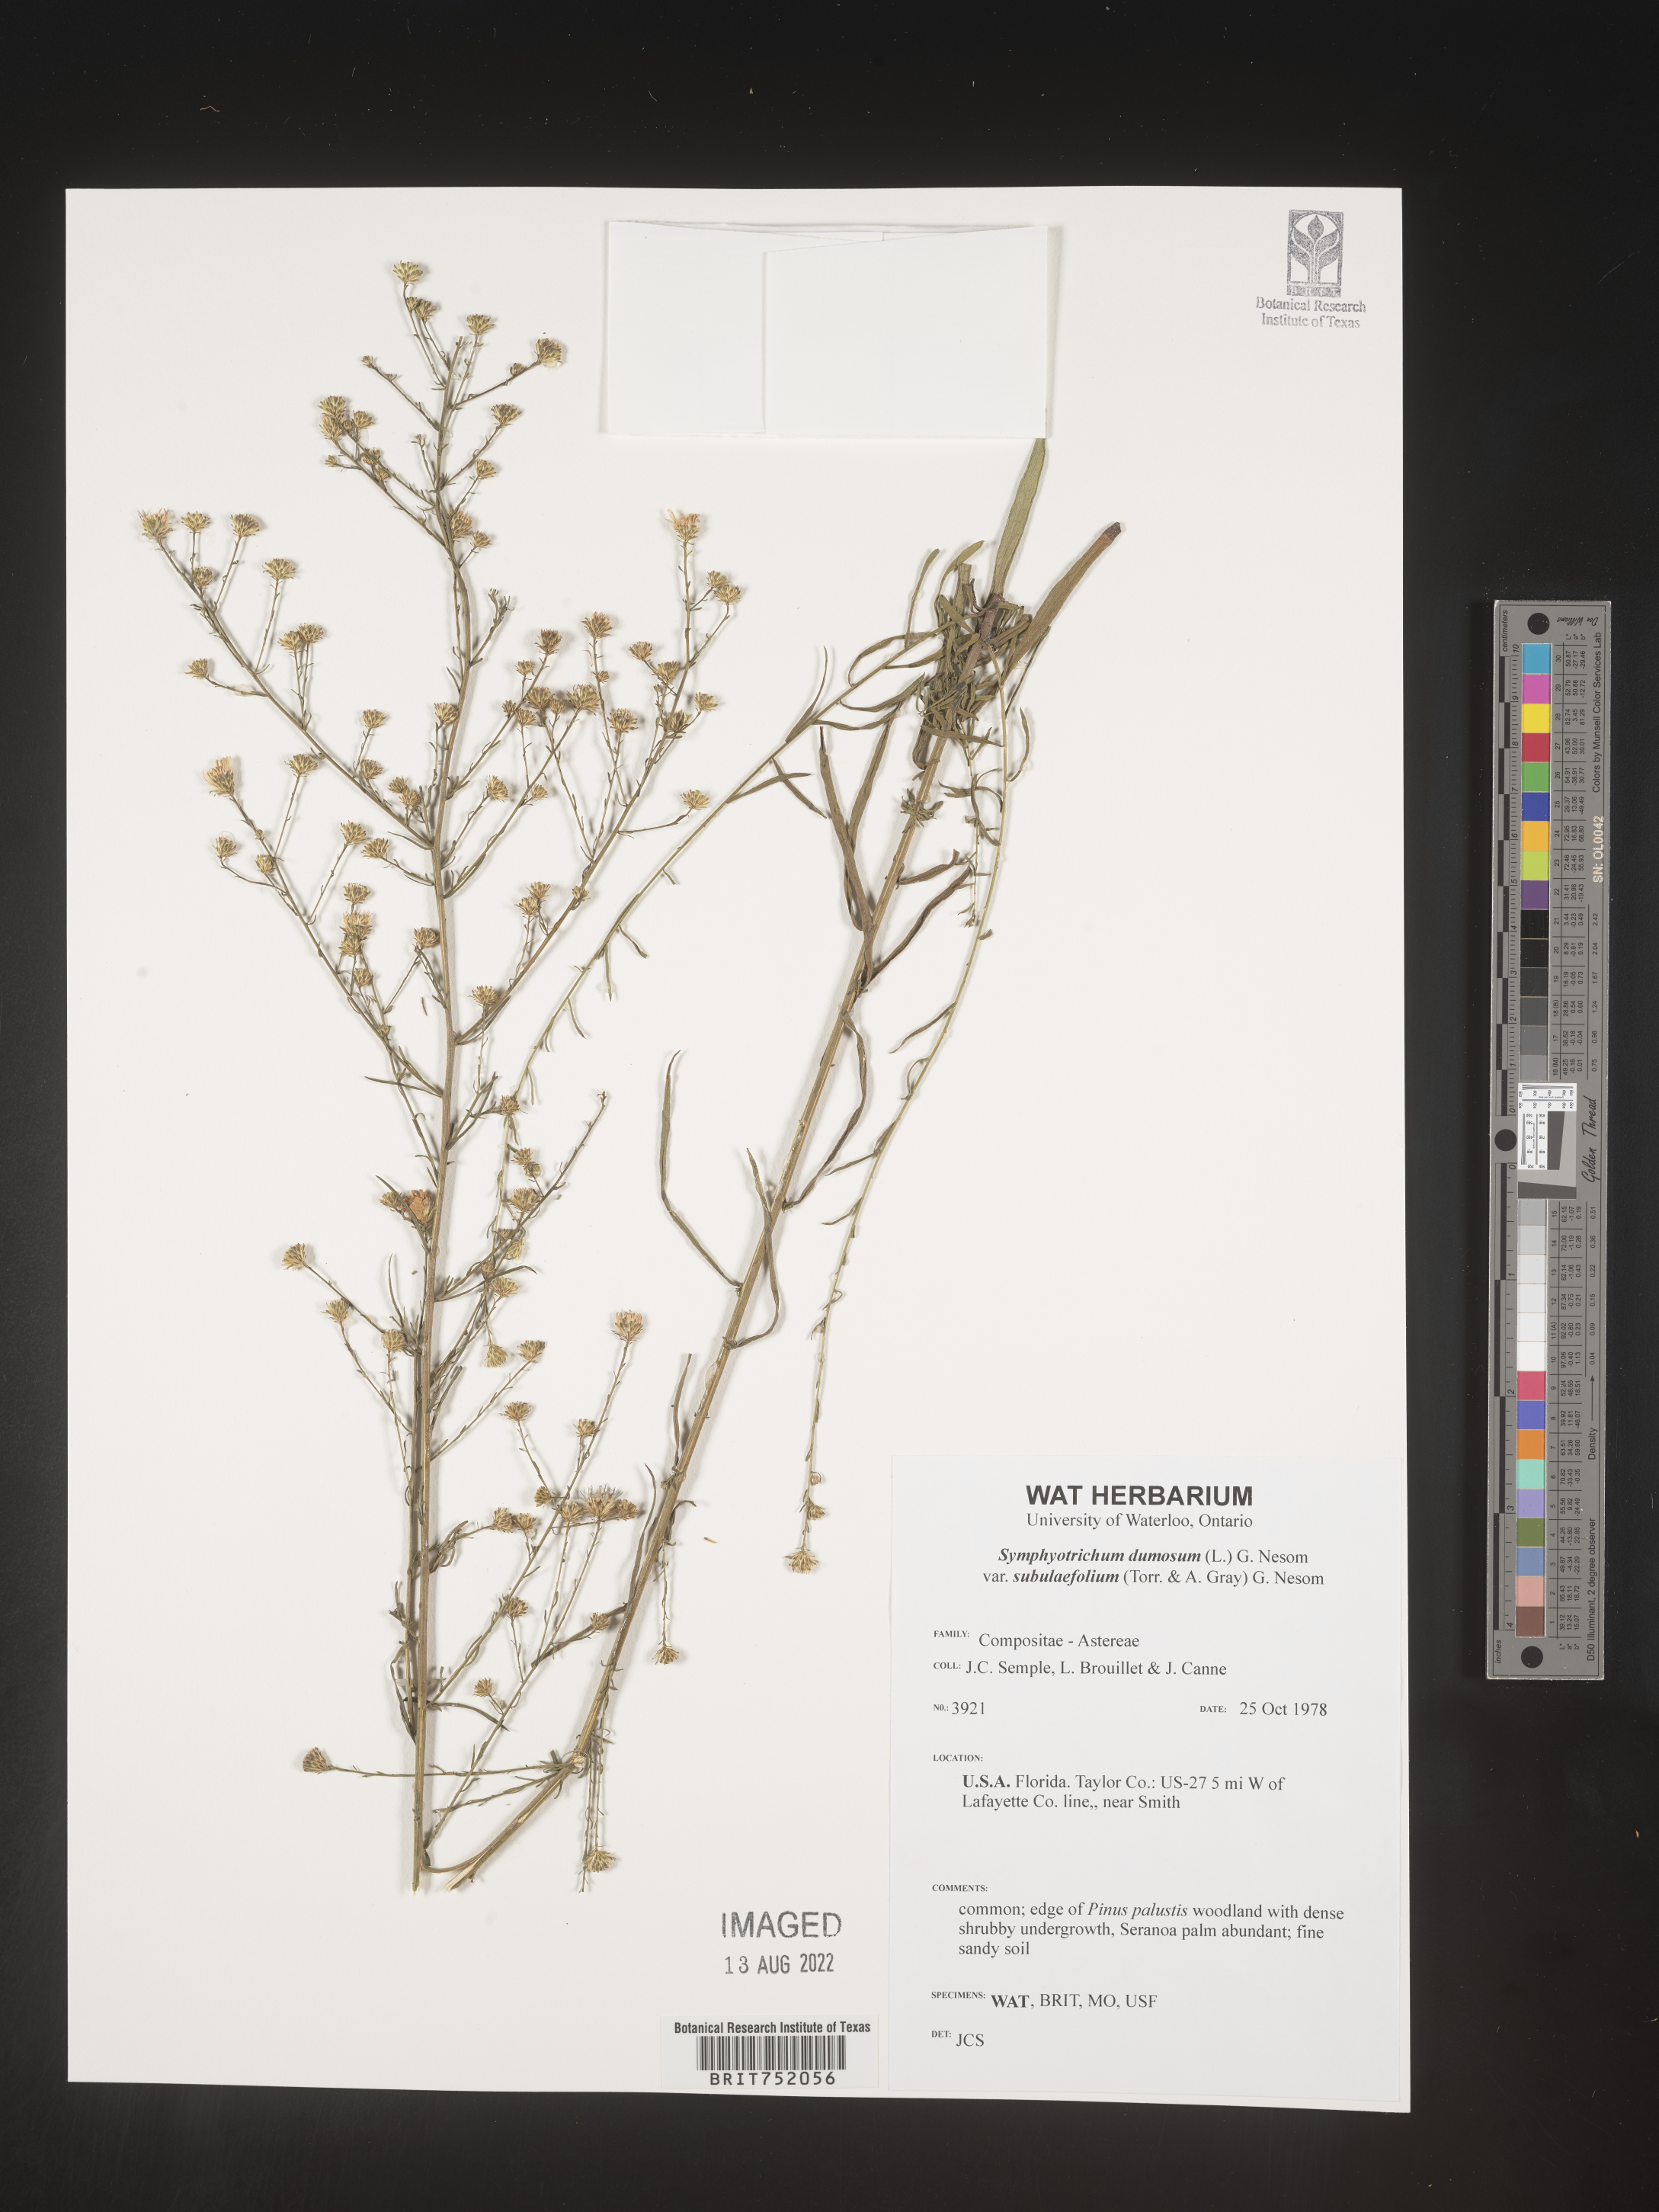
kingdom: Plantae
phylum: Tracheophyta
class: Magnoliopsida
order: Asterales
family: Asteraceae
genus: Symphyotrichum
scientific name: Symphyotrichum dumosum
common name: Bushy aster
